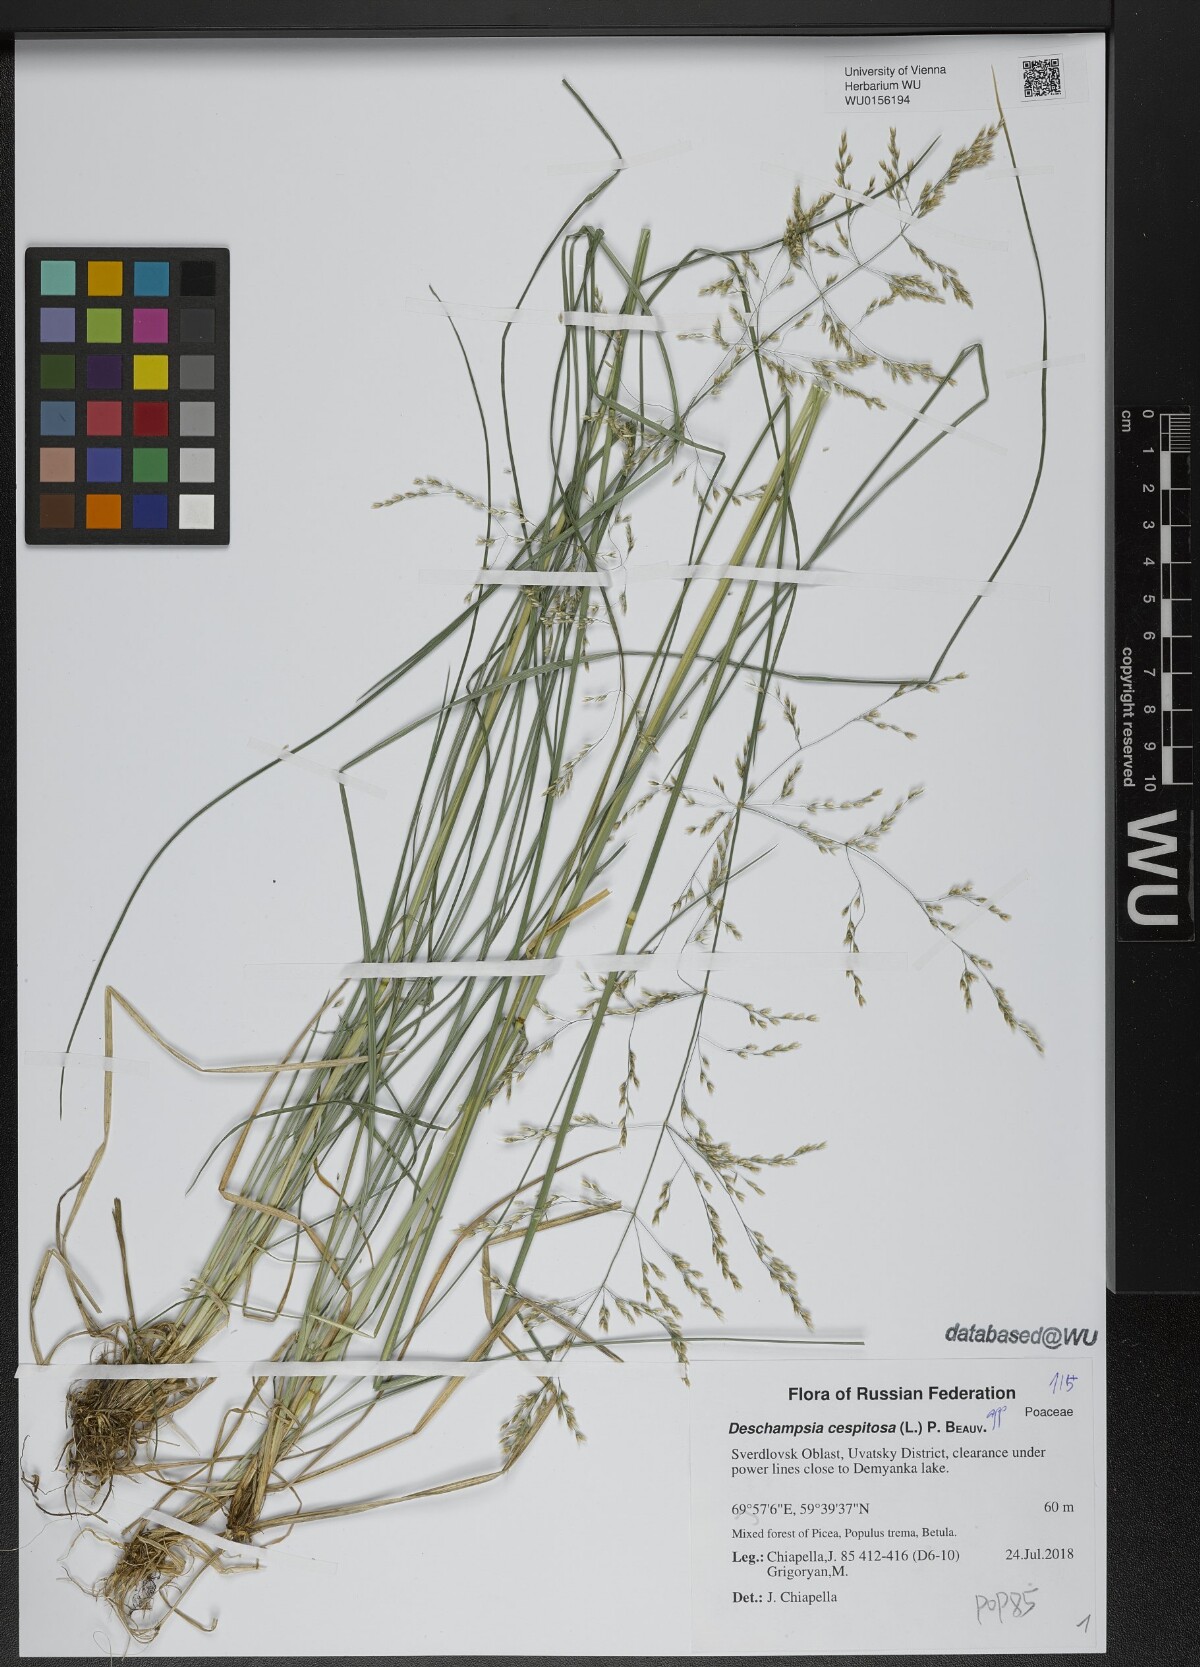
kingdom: Plantae
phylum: Tracheophyta
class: Liliopsida
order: Poales
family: Poaceae
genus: Deschampsia
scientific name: Deschampsia cespitosa
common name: Tufted hair-grass
